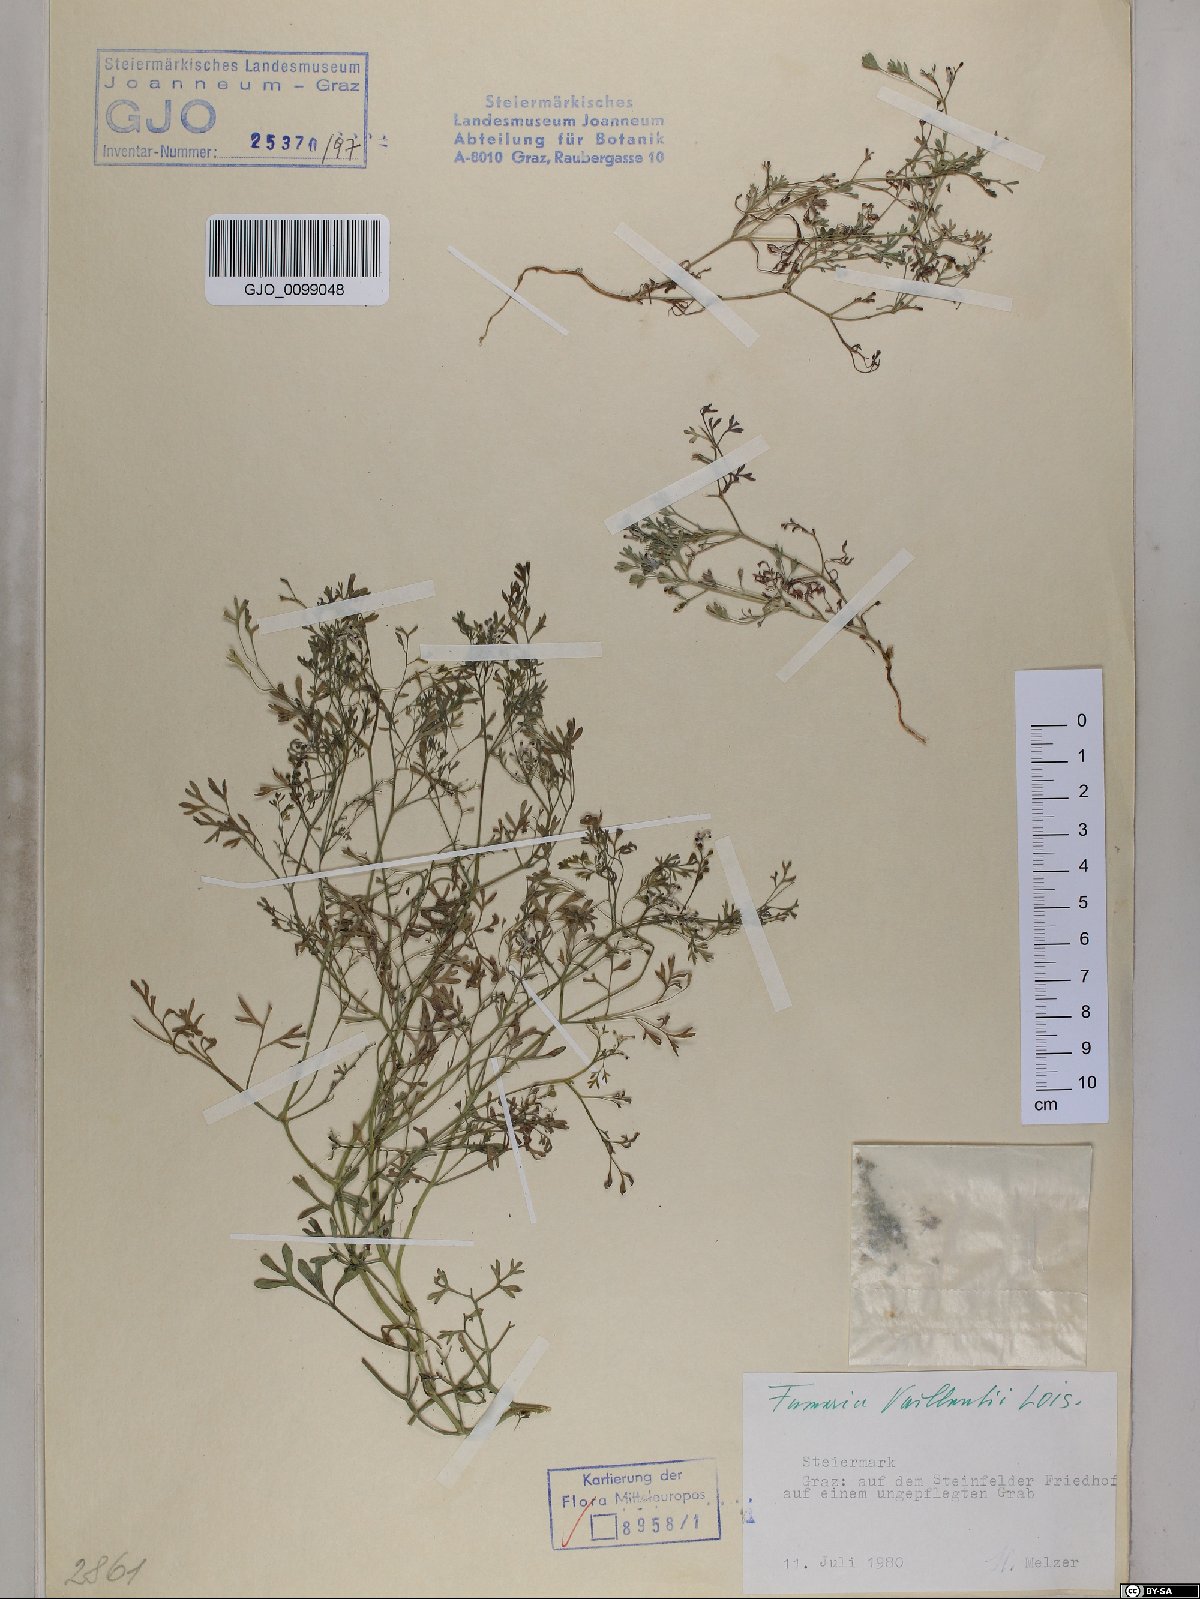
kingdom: Plantae
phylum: Tracheophyta
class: Magnoliopsida
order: Ranunculales
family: Papaveraceae
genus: Fumaria
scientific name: Fumaria vaillantii
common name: Few-flowered fumitory
